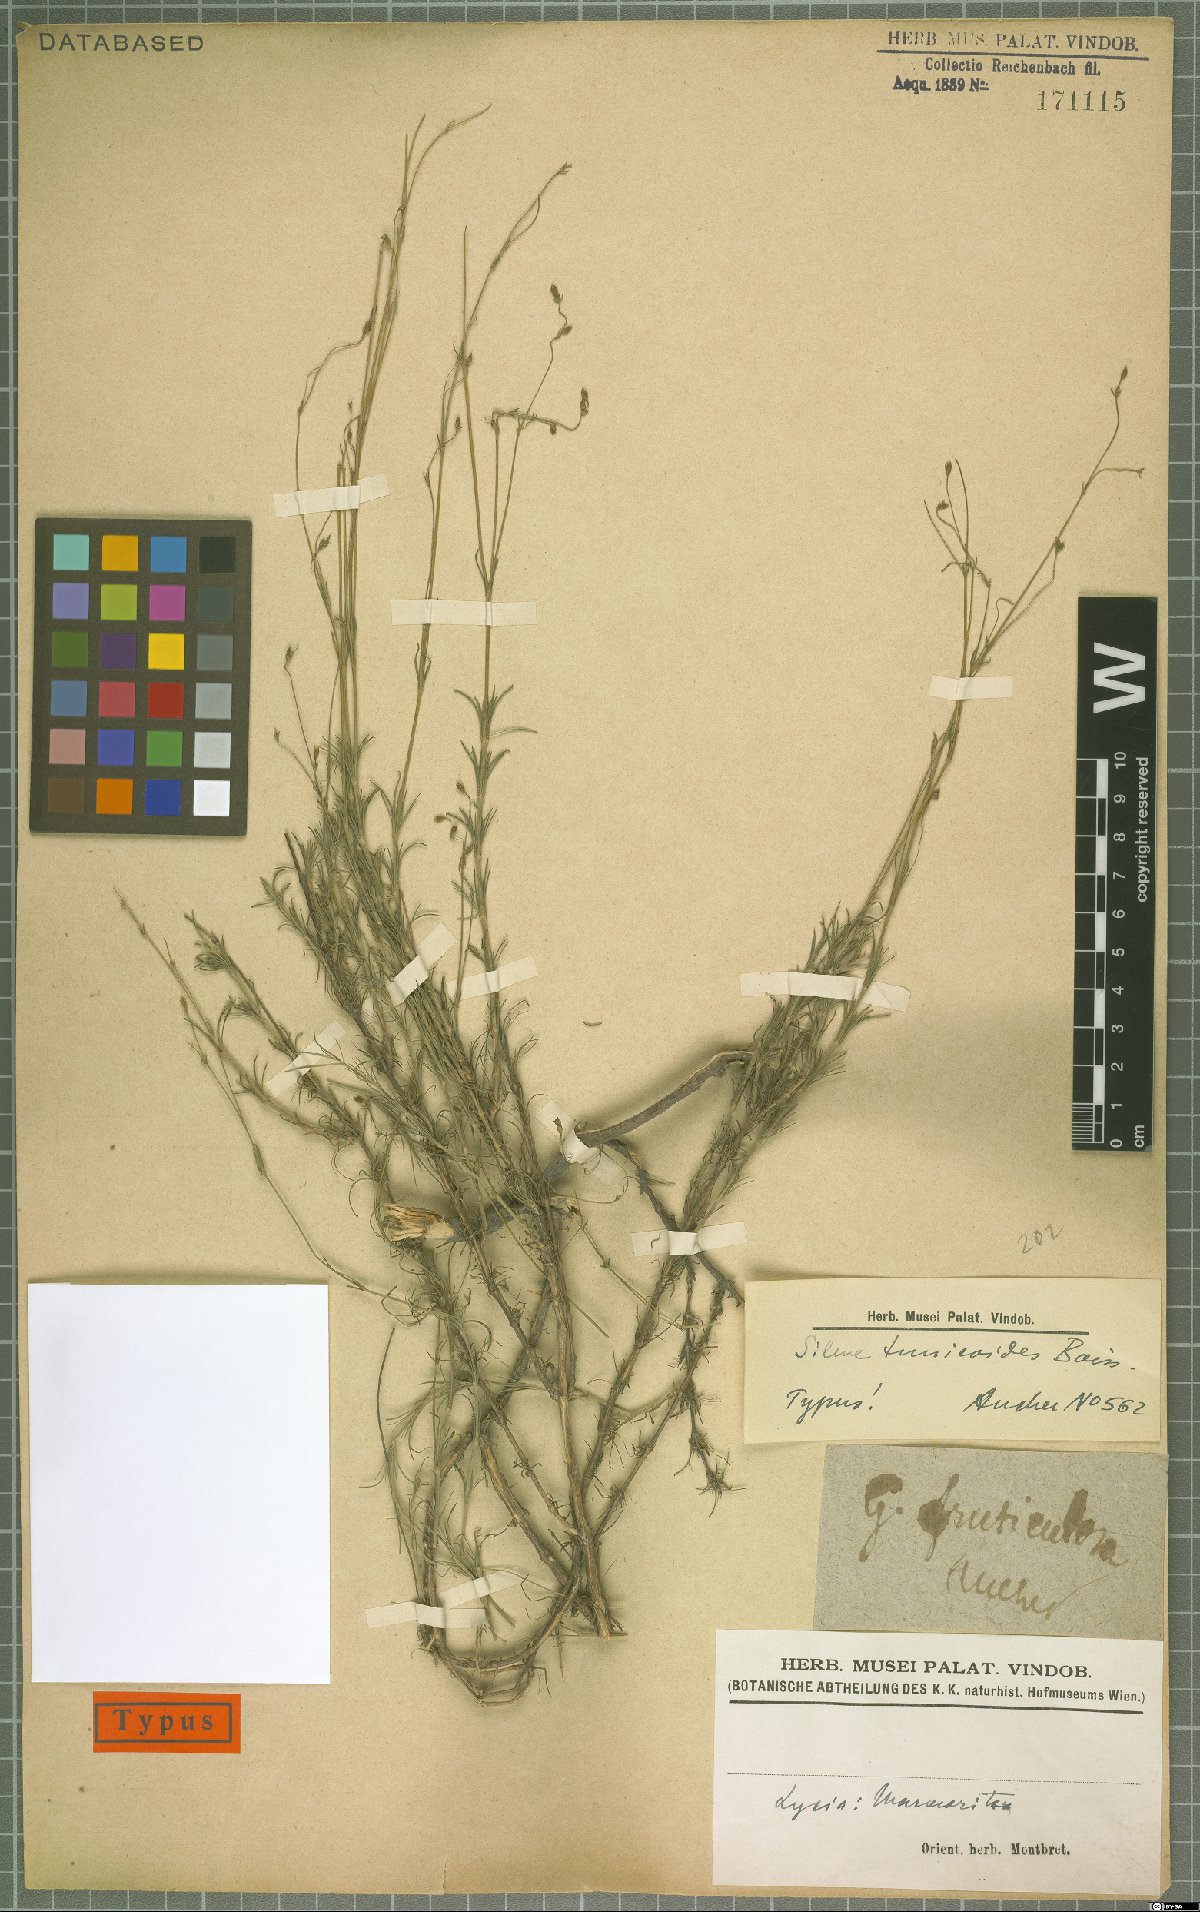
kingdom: Plantae
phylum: Tracheophyta
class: Magnoliopsida
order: Caryophyllales
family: Caryophyllaceae
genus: Silene
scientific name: Silene tunicoides
